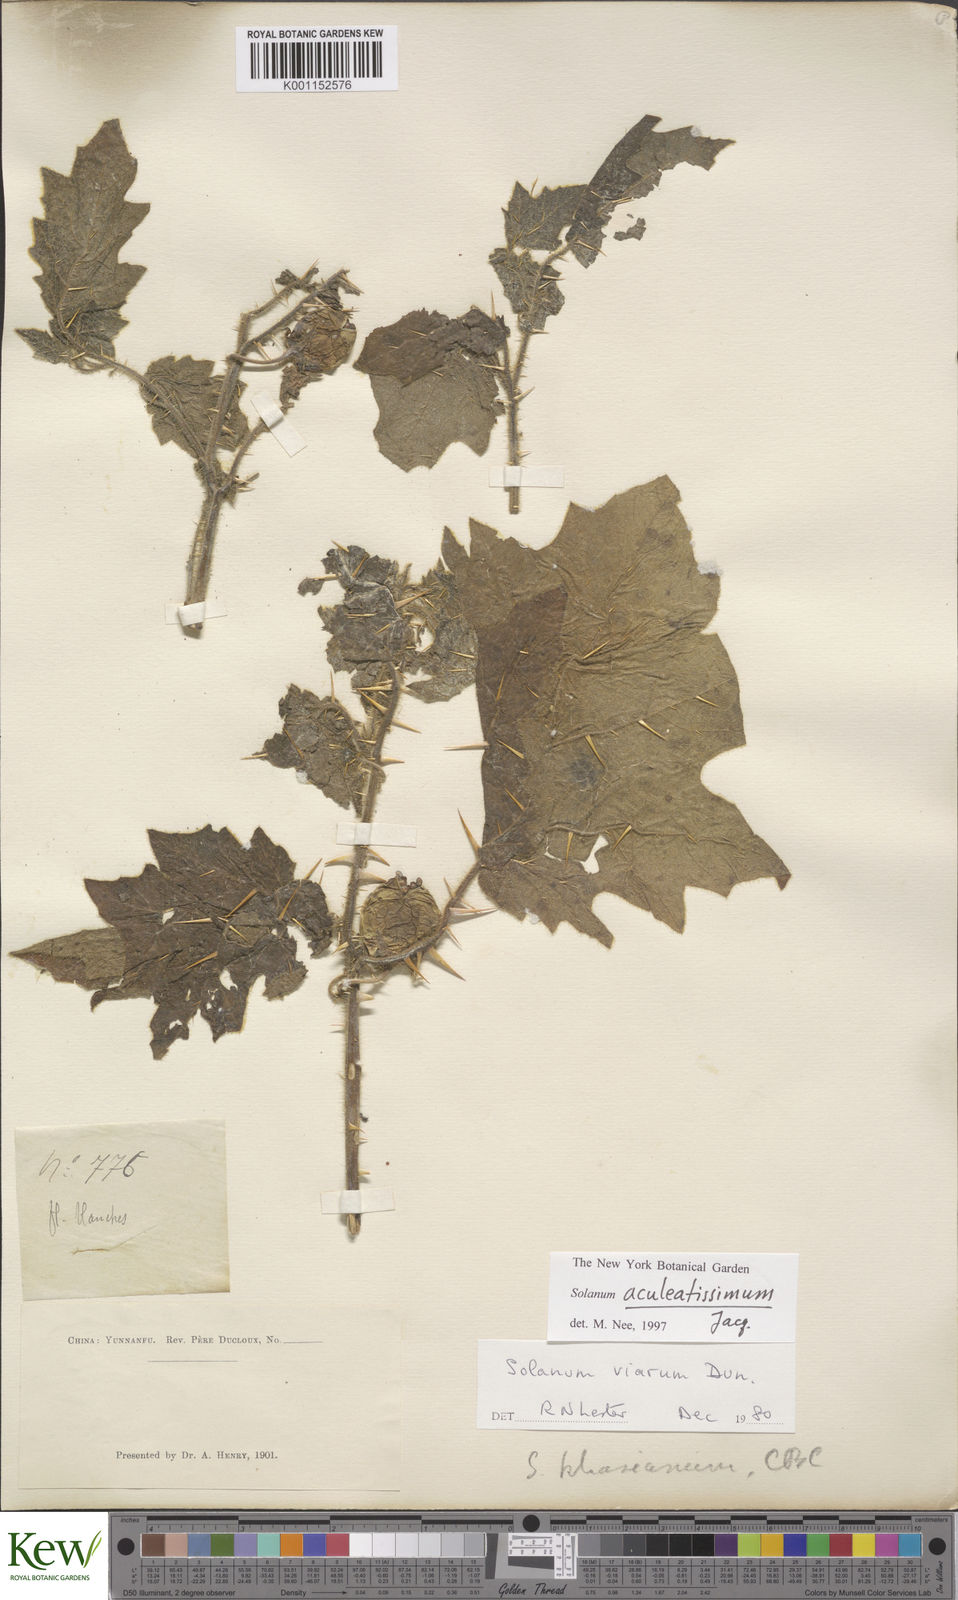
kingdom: Plantae
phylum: Tracheophyta
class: Magnoliopsida
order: Solanales
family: Solanaceae
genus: Solanum
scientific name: Solanum aculeatissimum
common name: Dutch eggplant
